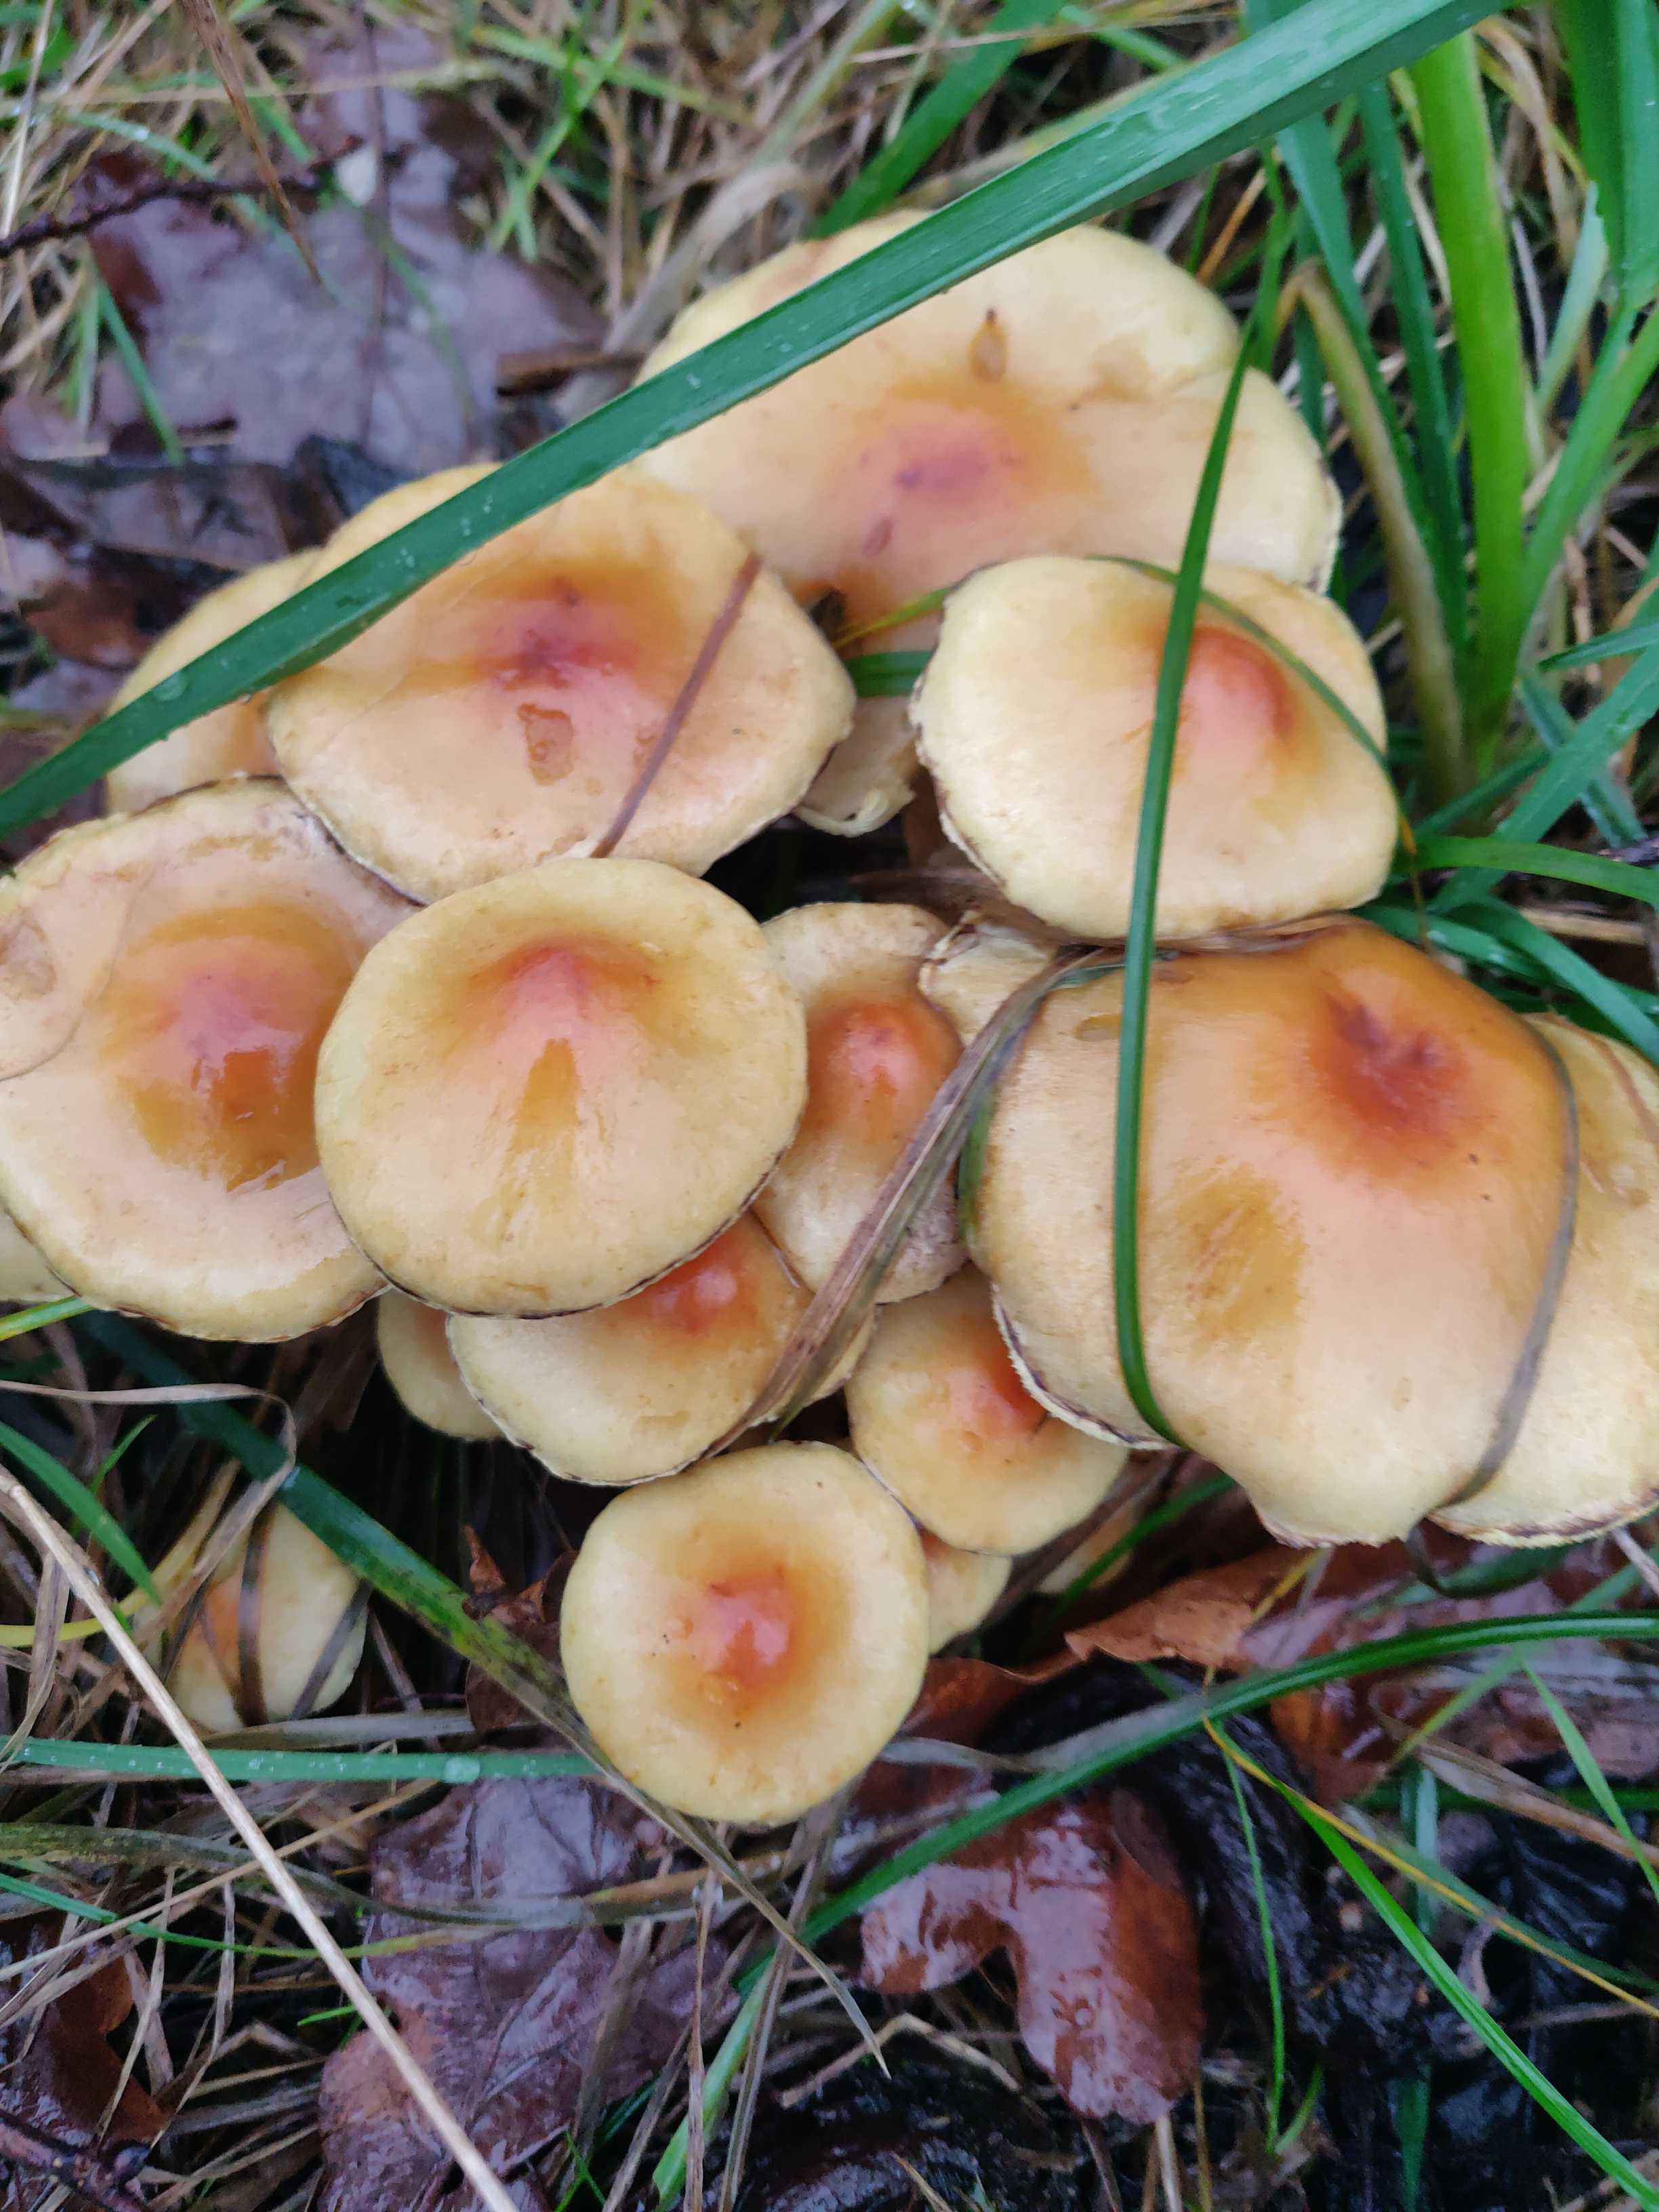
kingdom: Fungi
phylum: Basidiomycota
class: Agaricomycetes
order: Agaricales
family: Strophariaceae
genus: Hypholoma
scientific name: Hypholoma fasciculare
